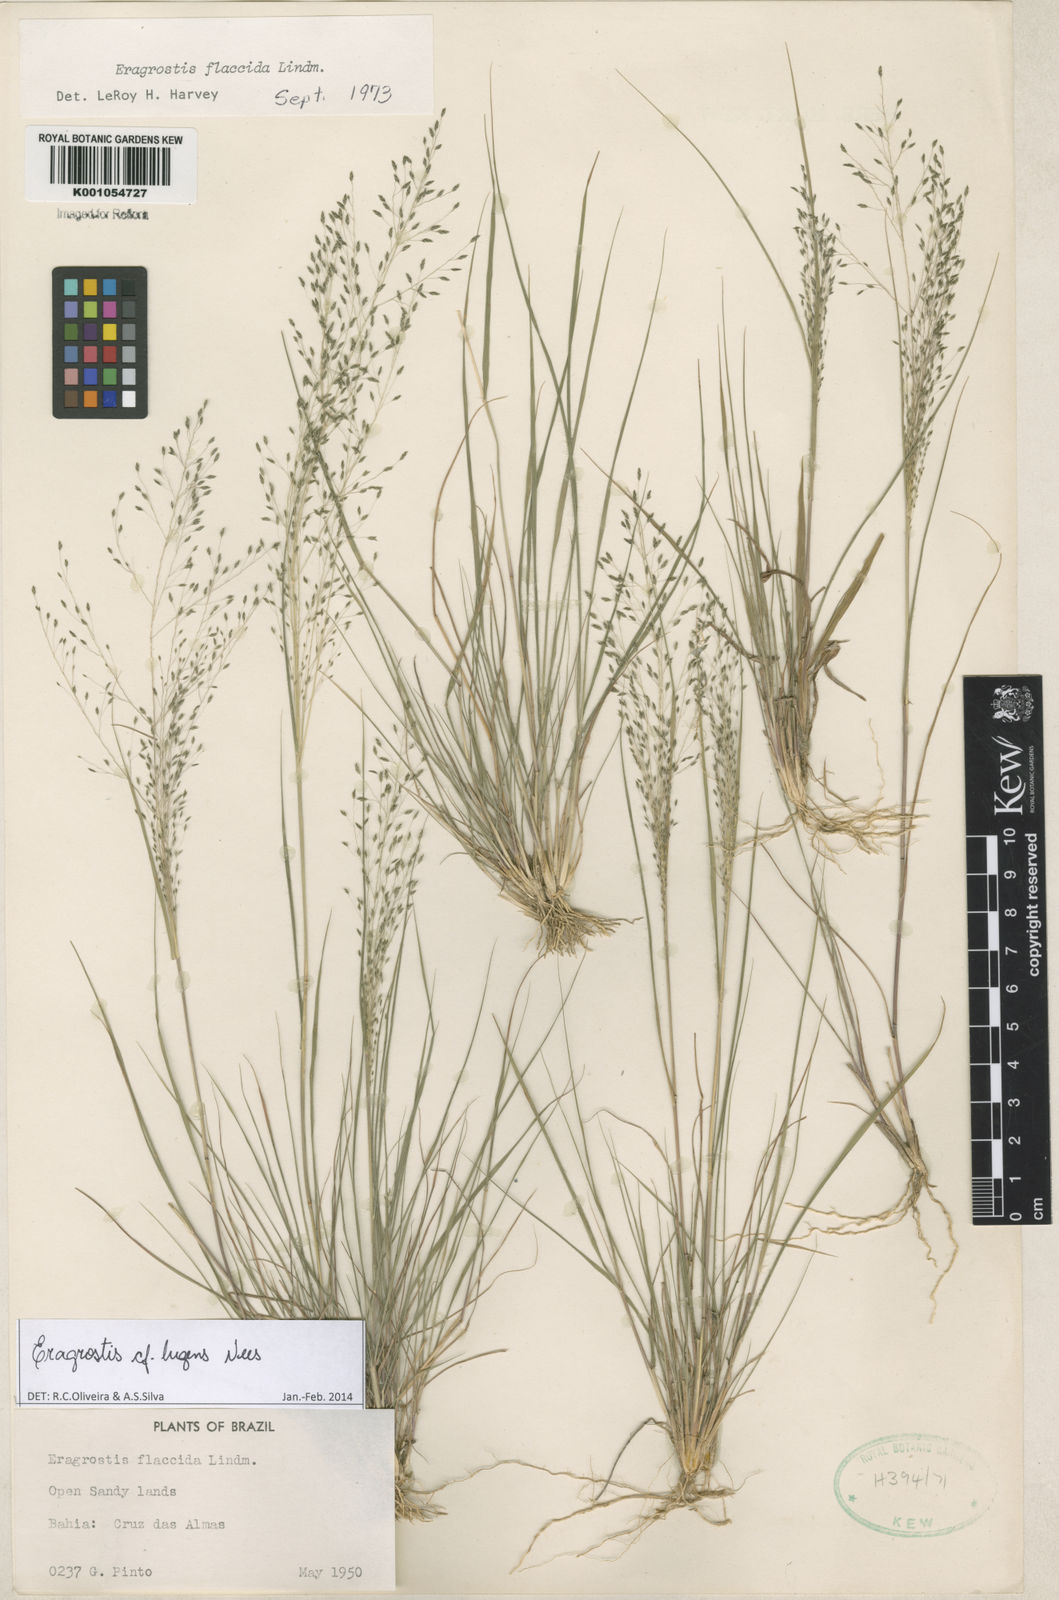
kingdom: Plantae
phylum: Tracheophyta
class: Liliopsida
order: Poales
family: Poaceae
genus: Eragrostis
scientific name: Eragrostis lugens
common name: Mourning love grass
